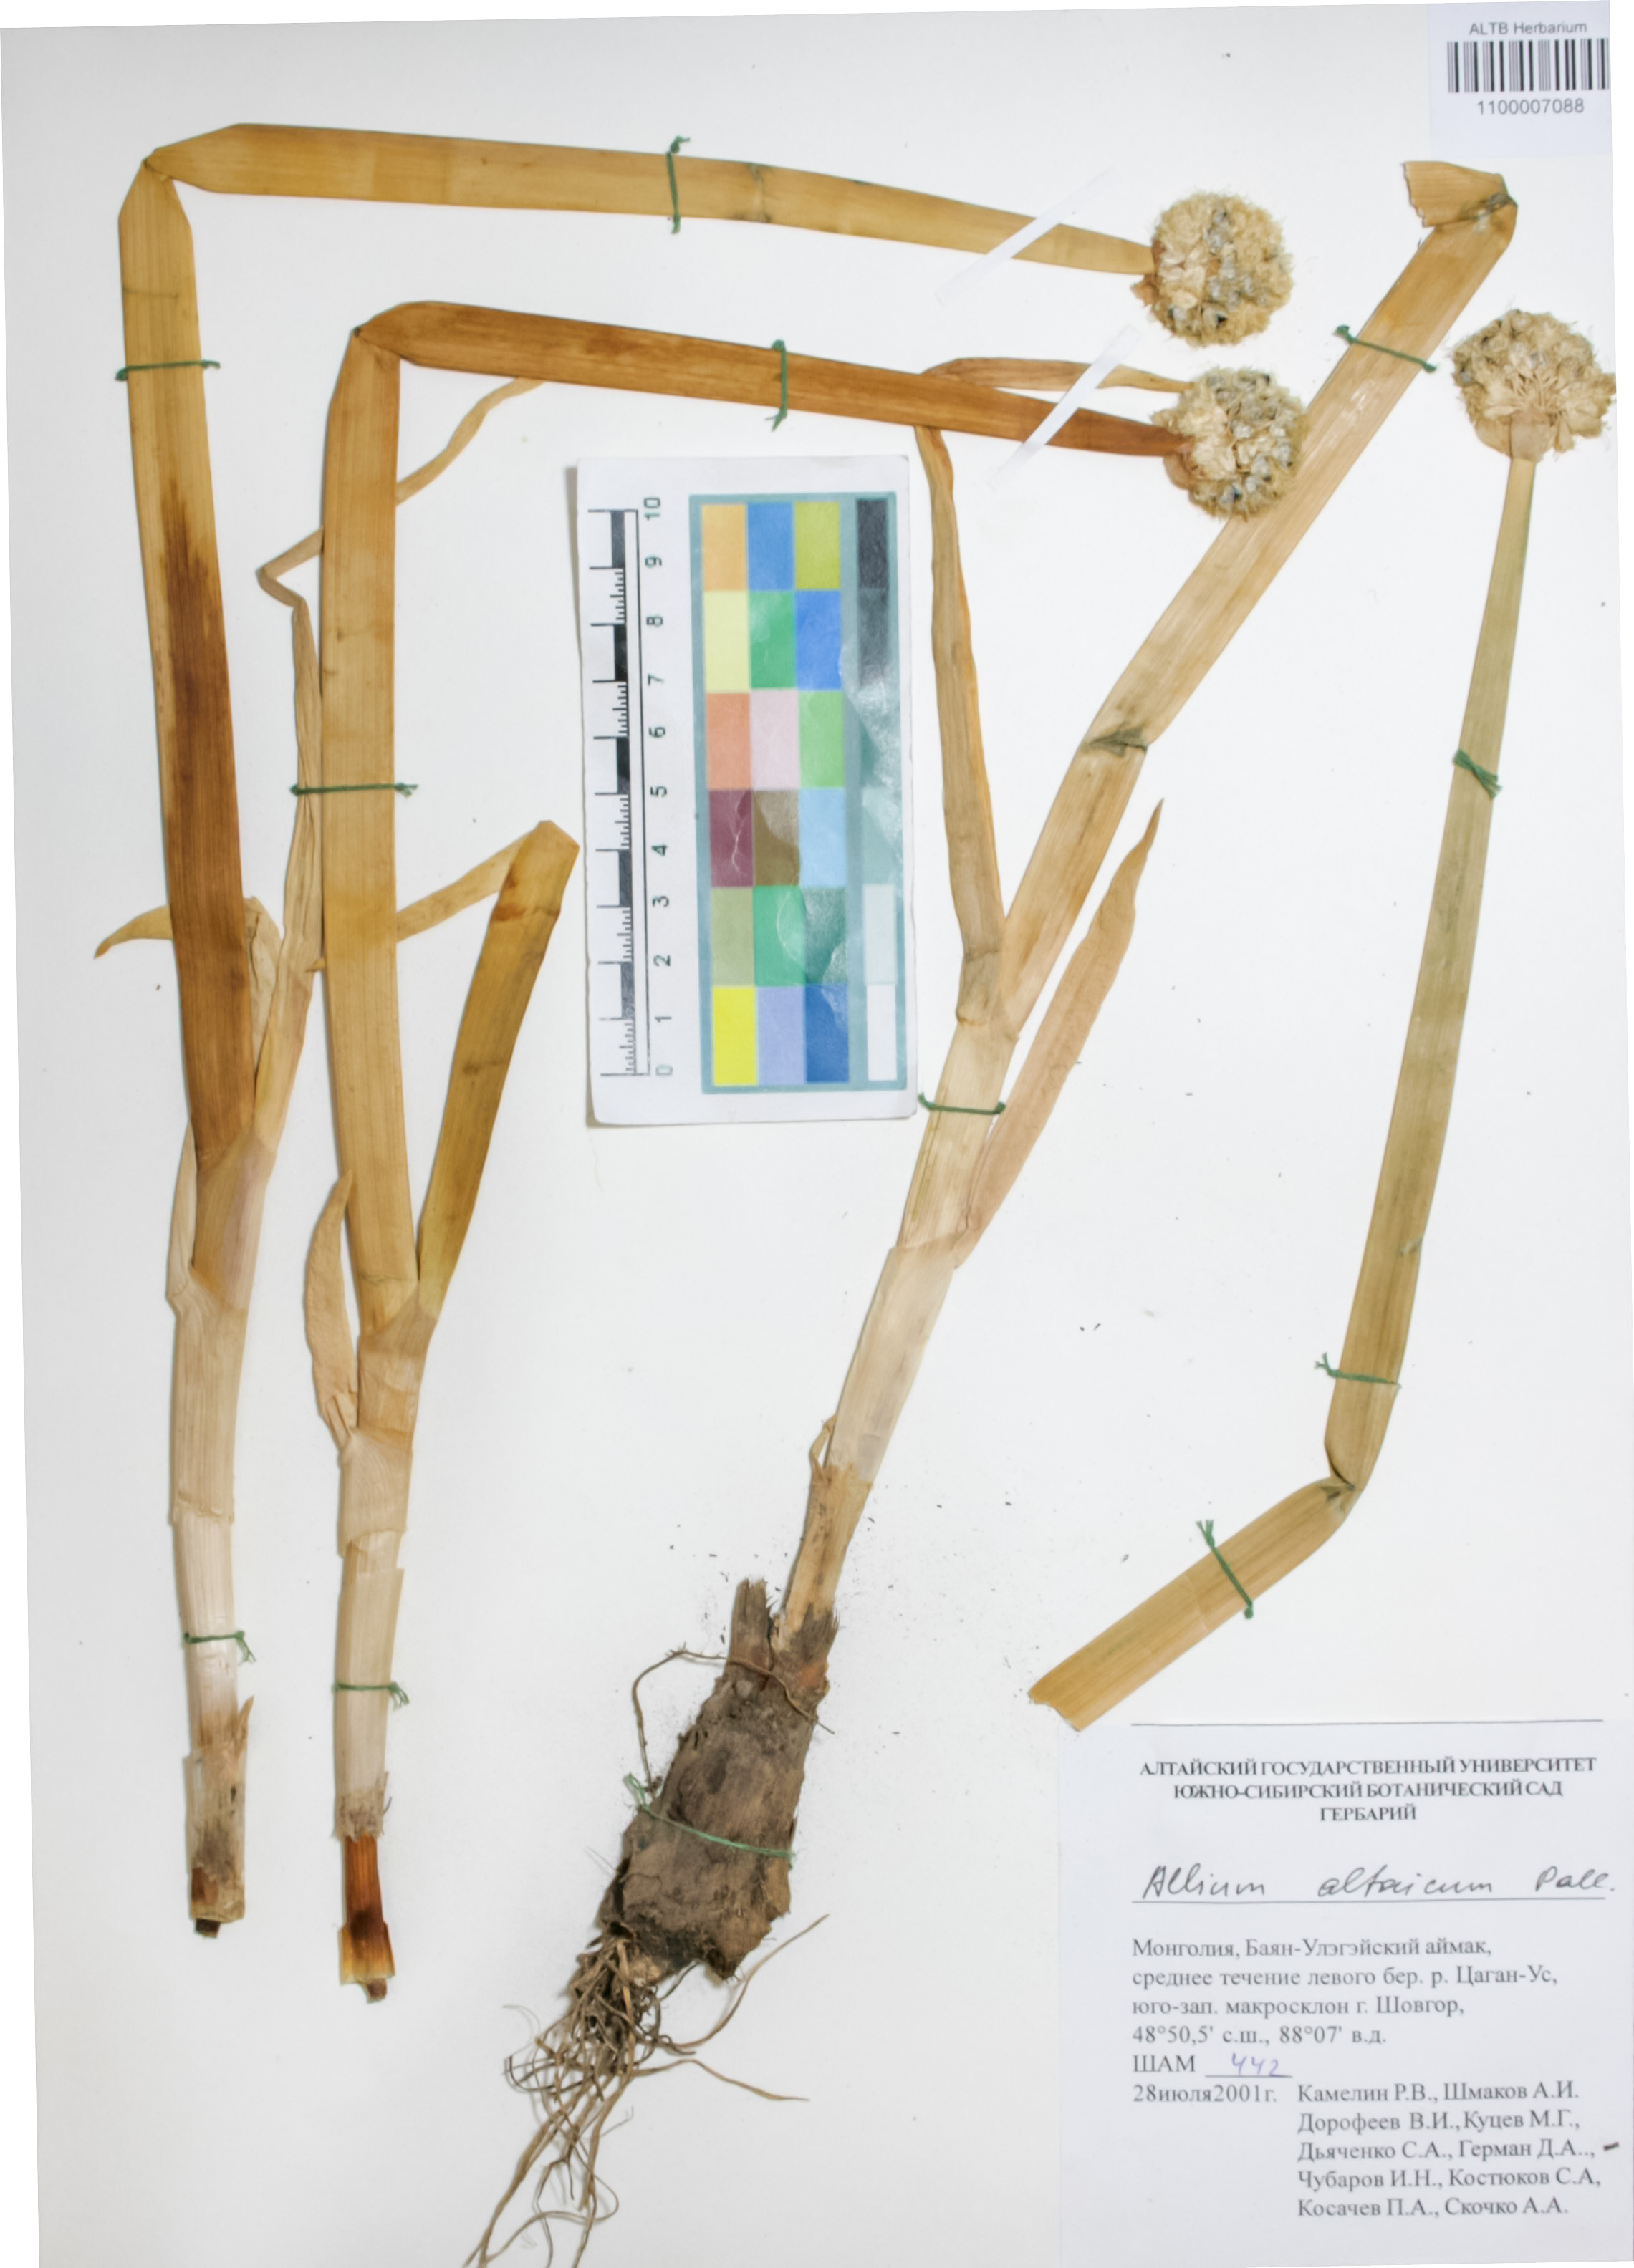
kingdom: Plantae
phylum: Tracheophyta
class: Liliopsida
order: Asparagales
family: Amaryllidaceae
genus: Allium
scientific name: Allium altaicum
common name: Altai onion
